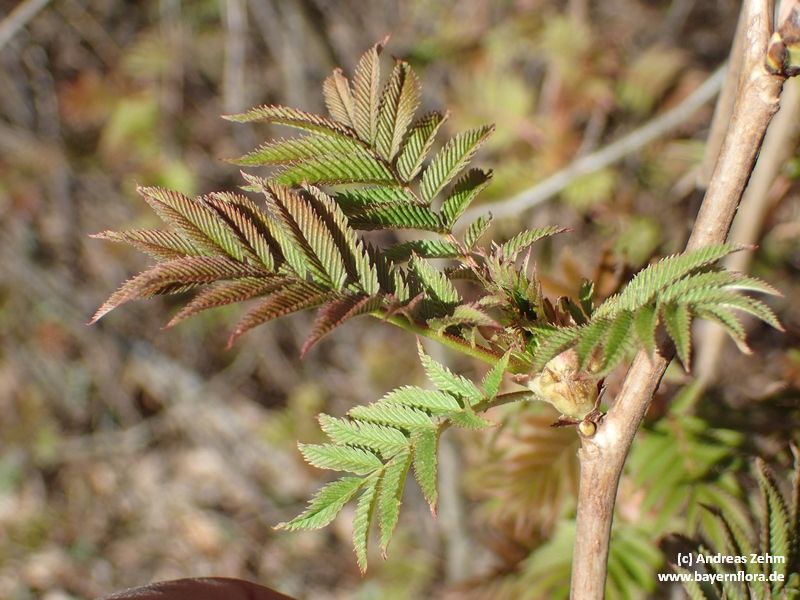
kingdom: Plantae
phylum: Tracheophyta
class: Magnoliopsida
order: Rosales
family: Rosaceae
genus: Sorbaria
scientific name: Sorbaria sorbifolia
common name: False spiraea
